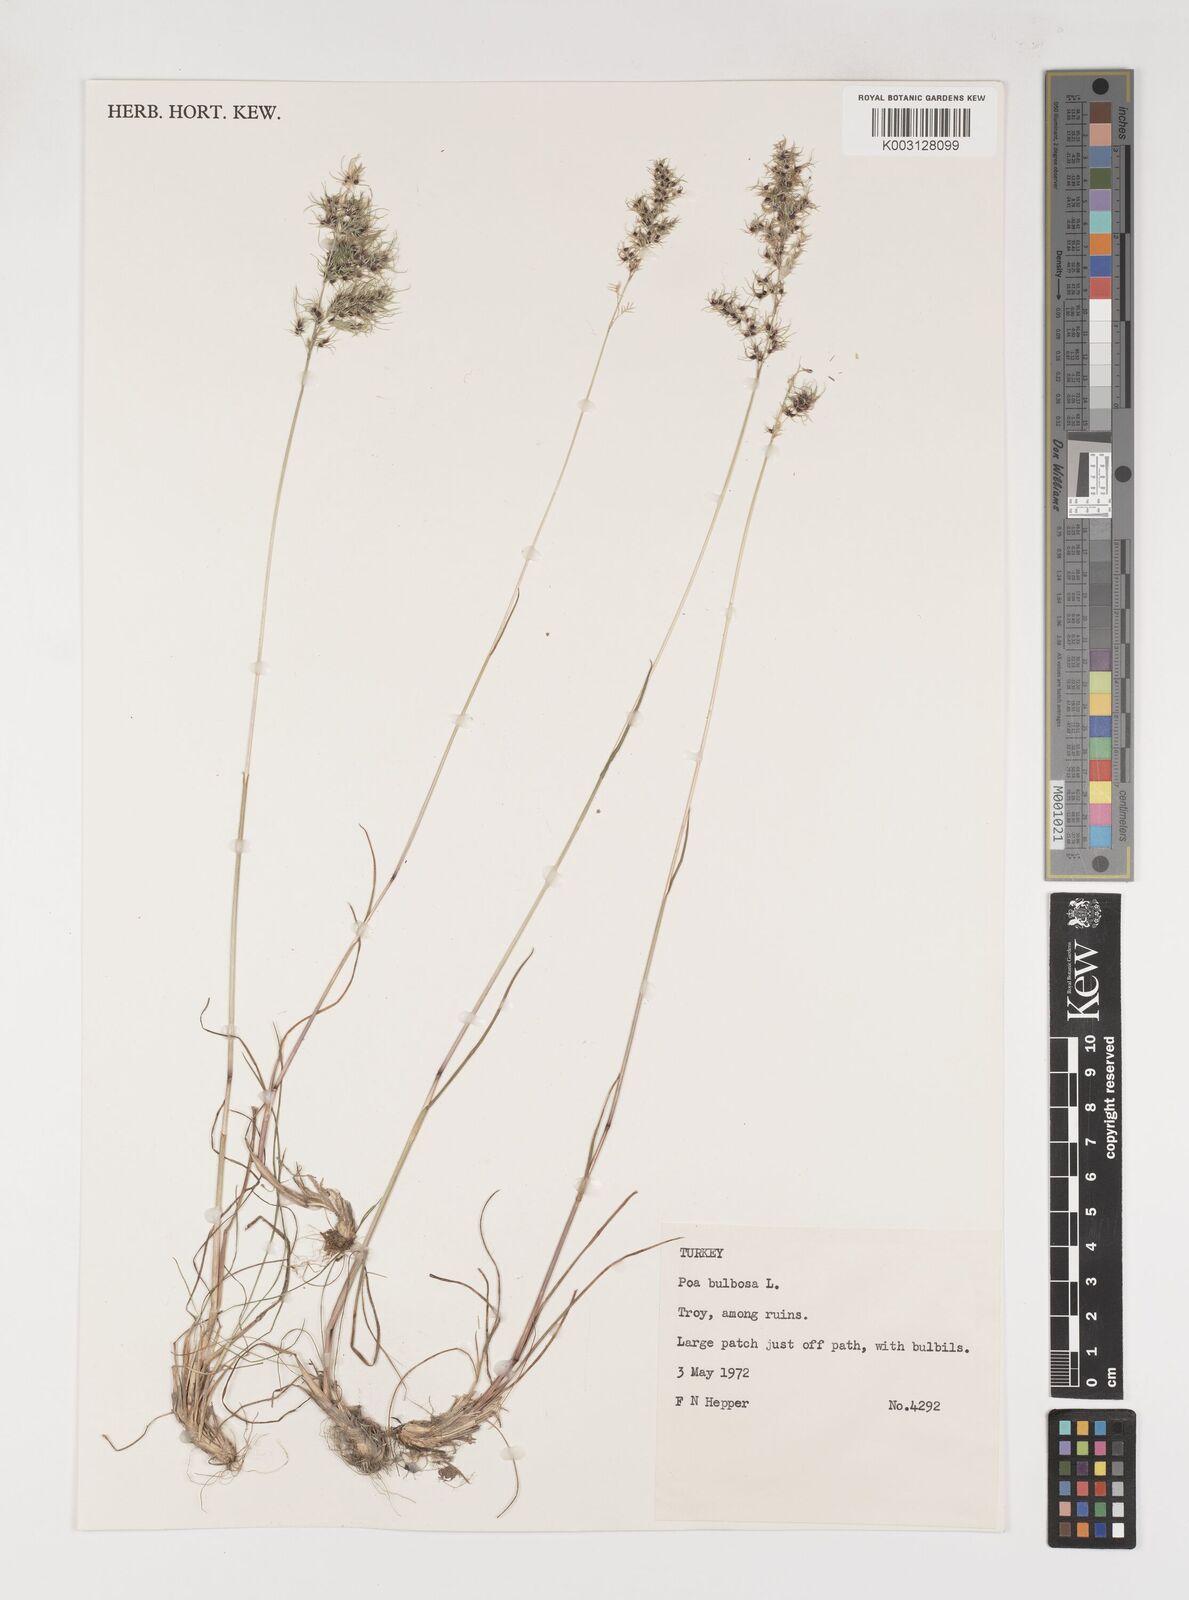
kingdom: Plantae
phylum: Tracheophyta
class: Liliopsida
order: Poales
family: Poaceae
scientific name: Poaceae
